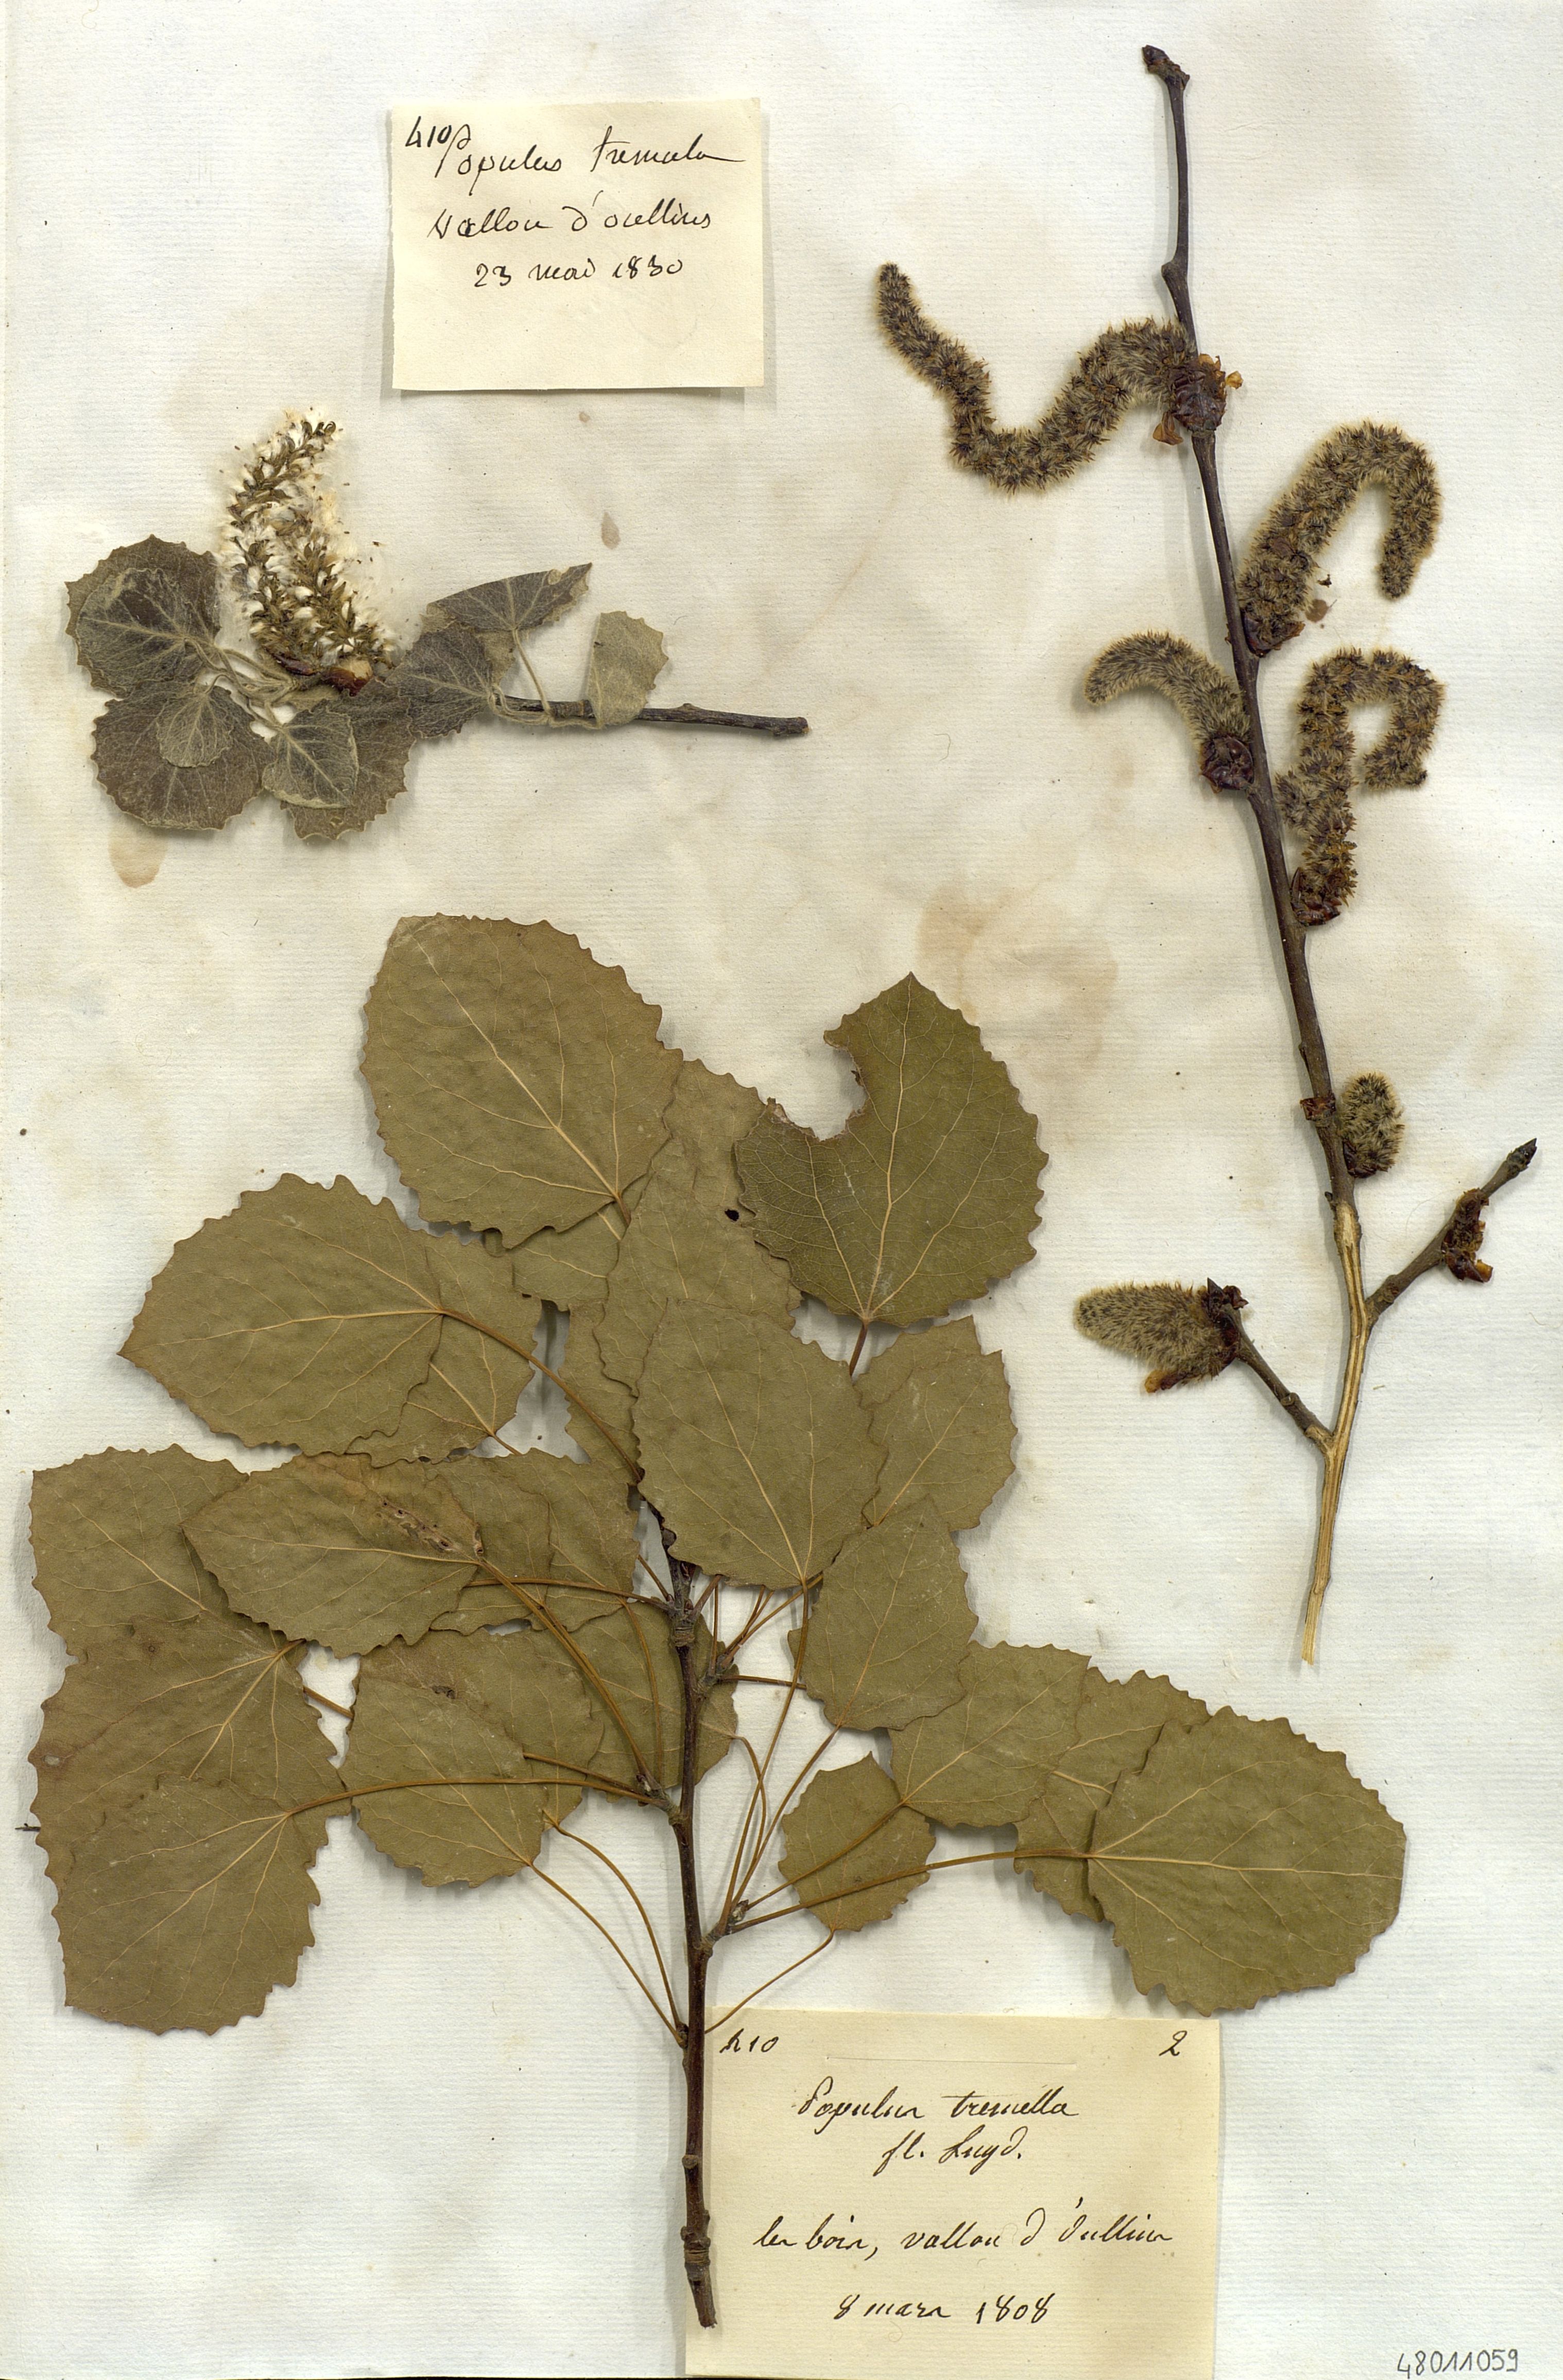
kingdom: Plantae
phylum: Tracheophyta
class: Magnoliopsida
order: Malpighiales
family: Salicaceae
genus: Populus
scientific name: Populus tremula
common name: European aspen
